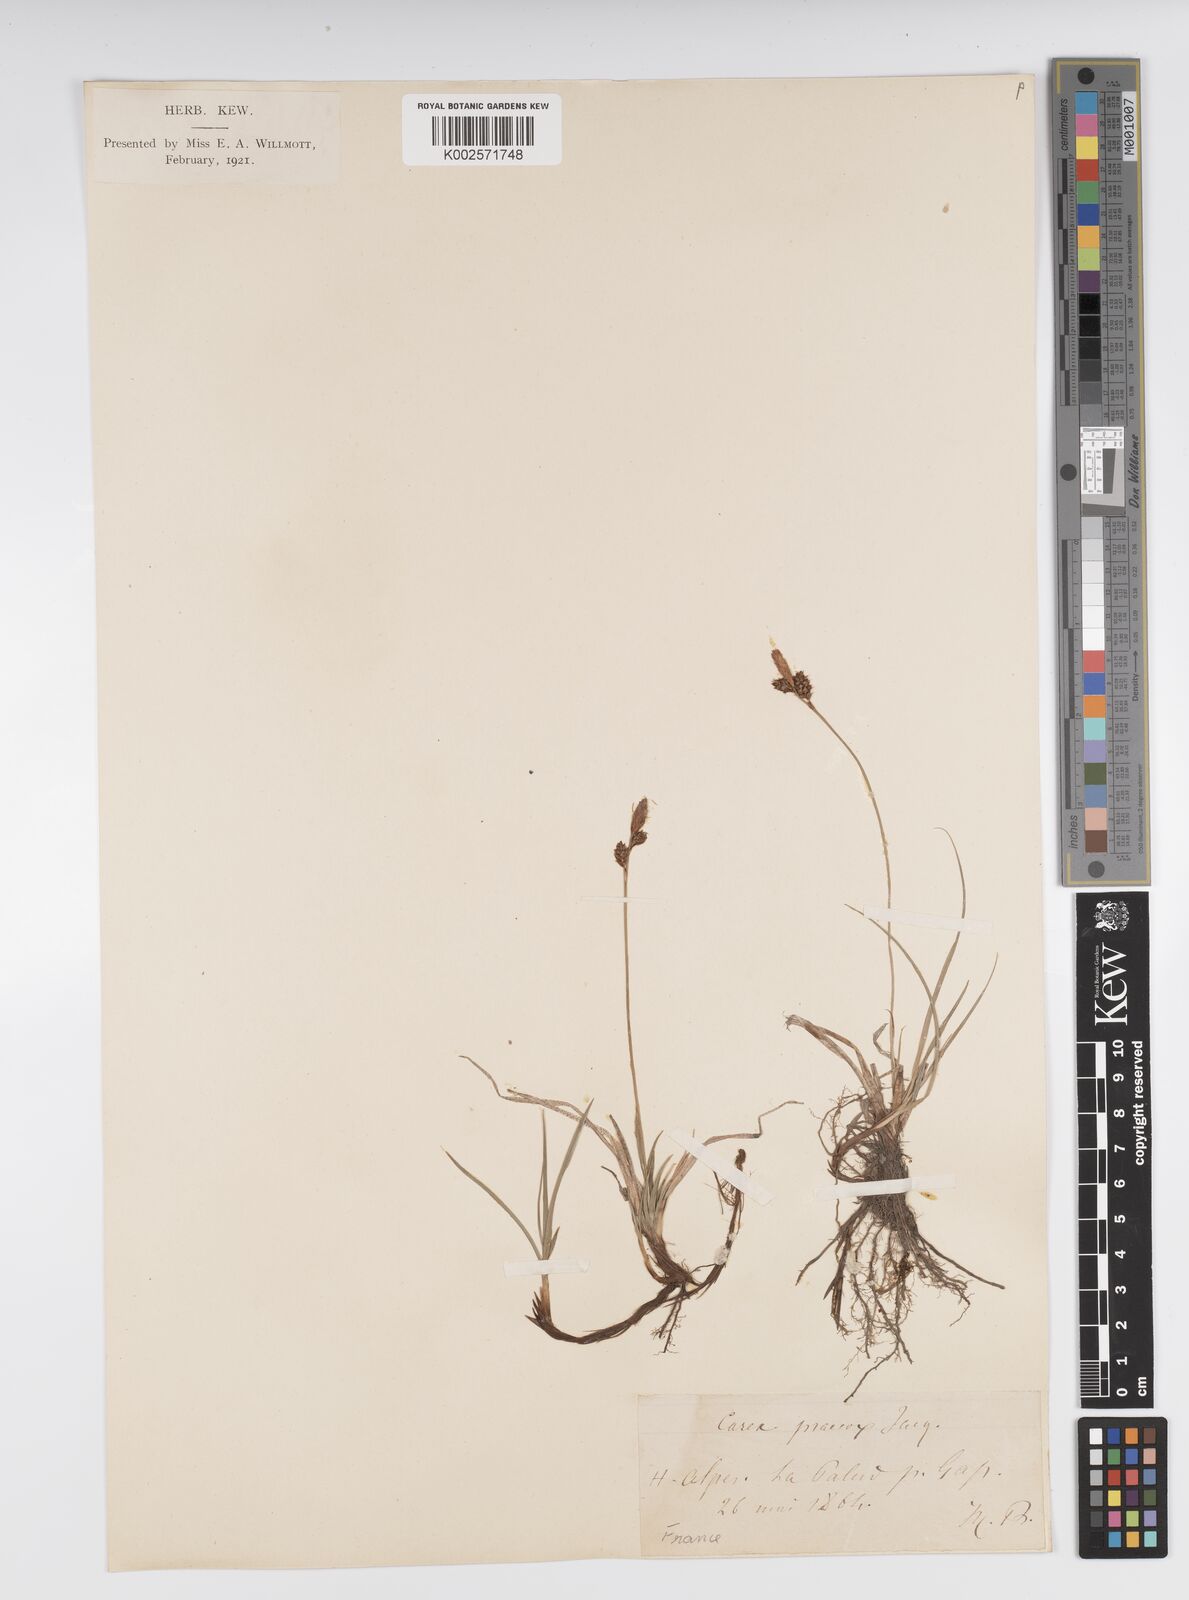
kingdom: Plantae
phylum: Tracheophyta
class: Liliopsida
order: Poales
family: Cyperaceae
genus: Carex
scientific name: Carex caryophyllea
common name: Spring sedge
